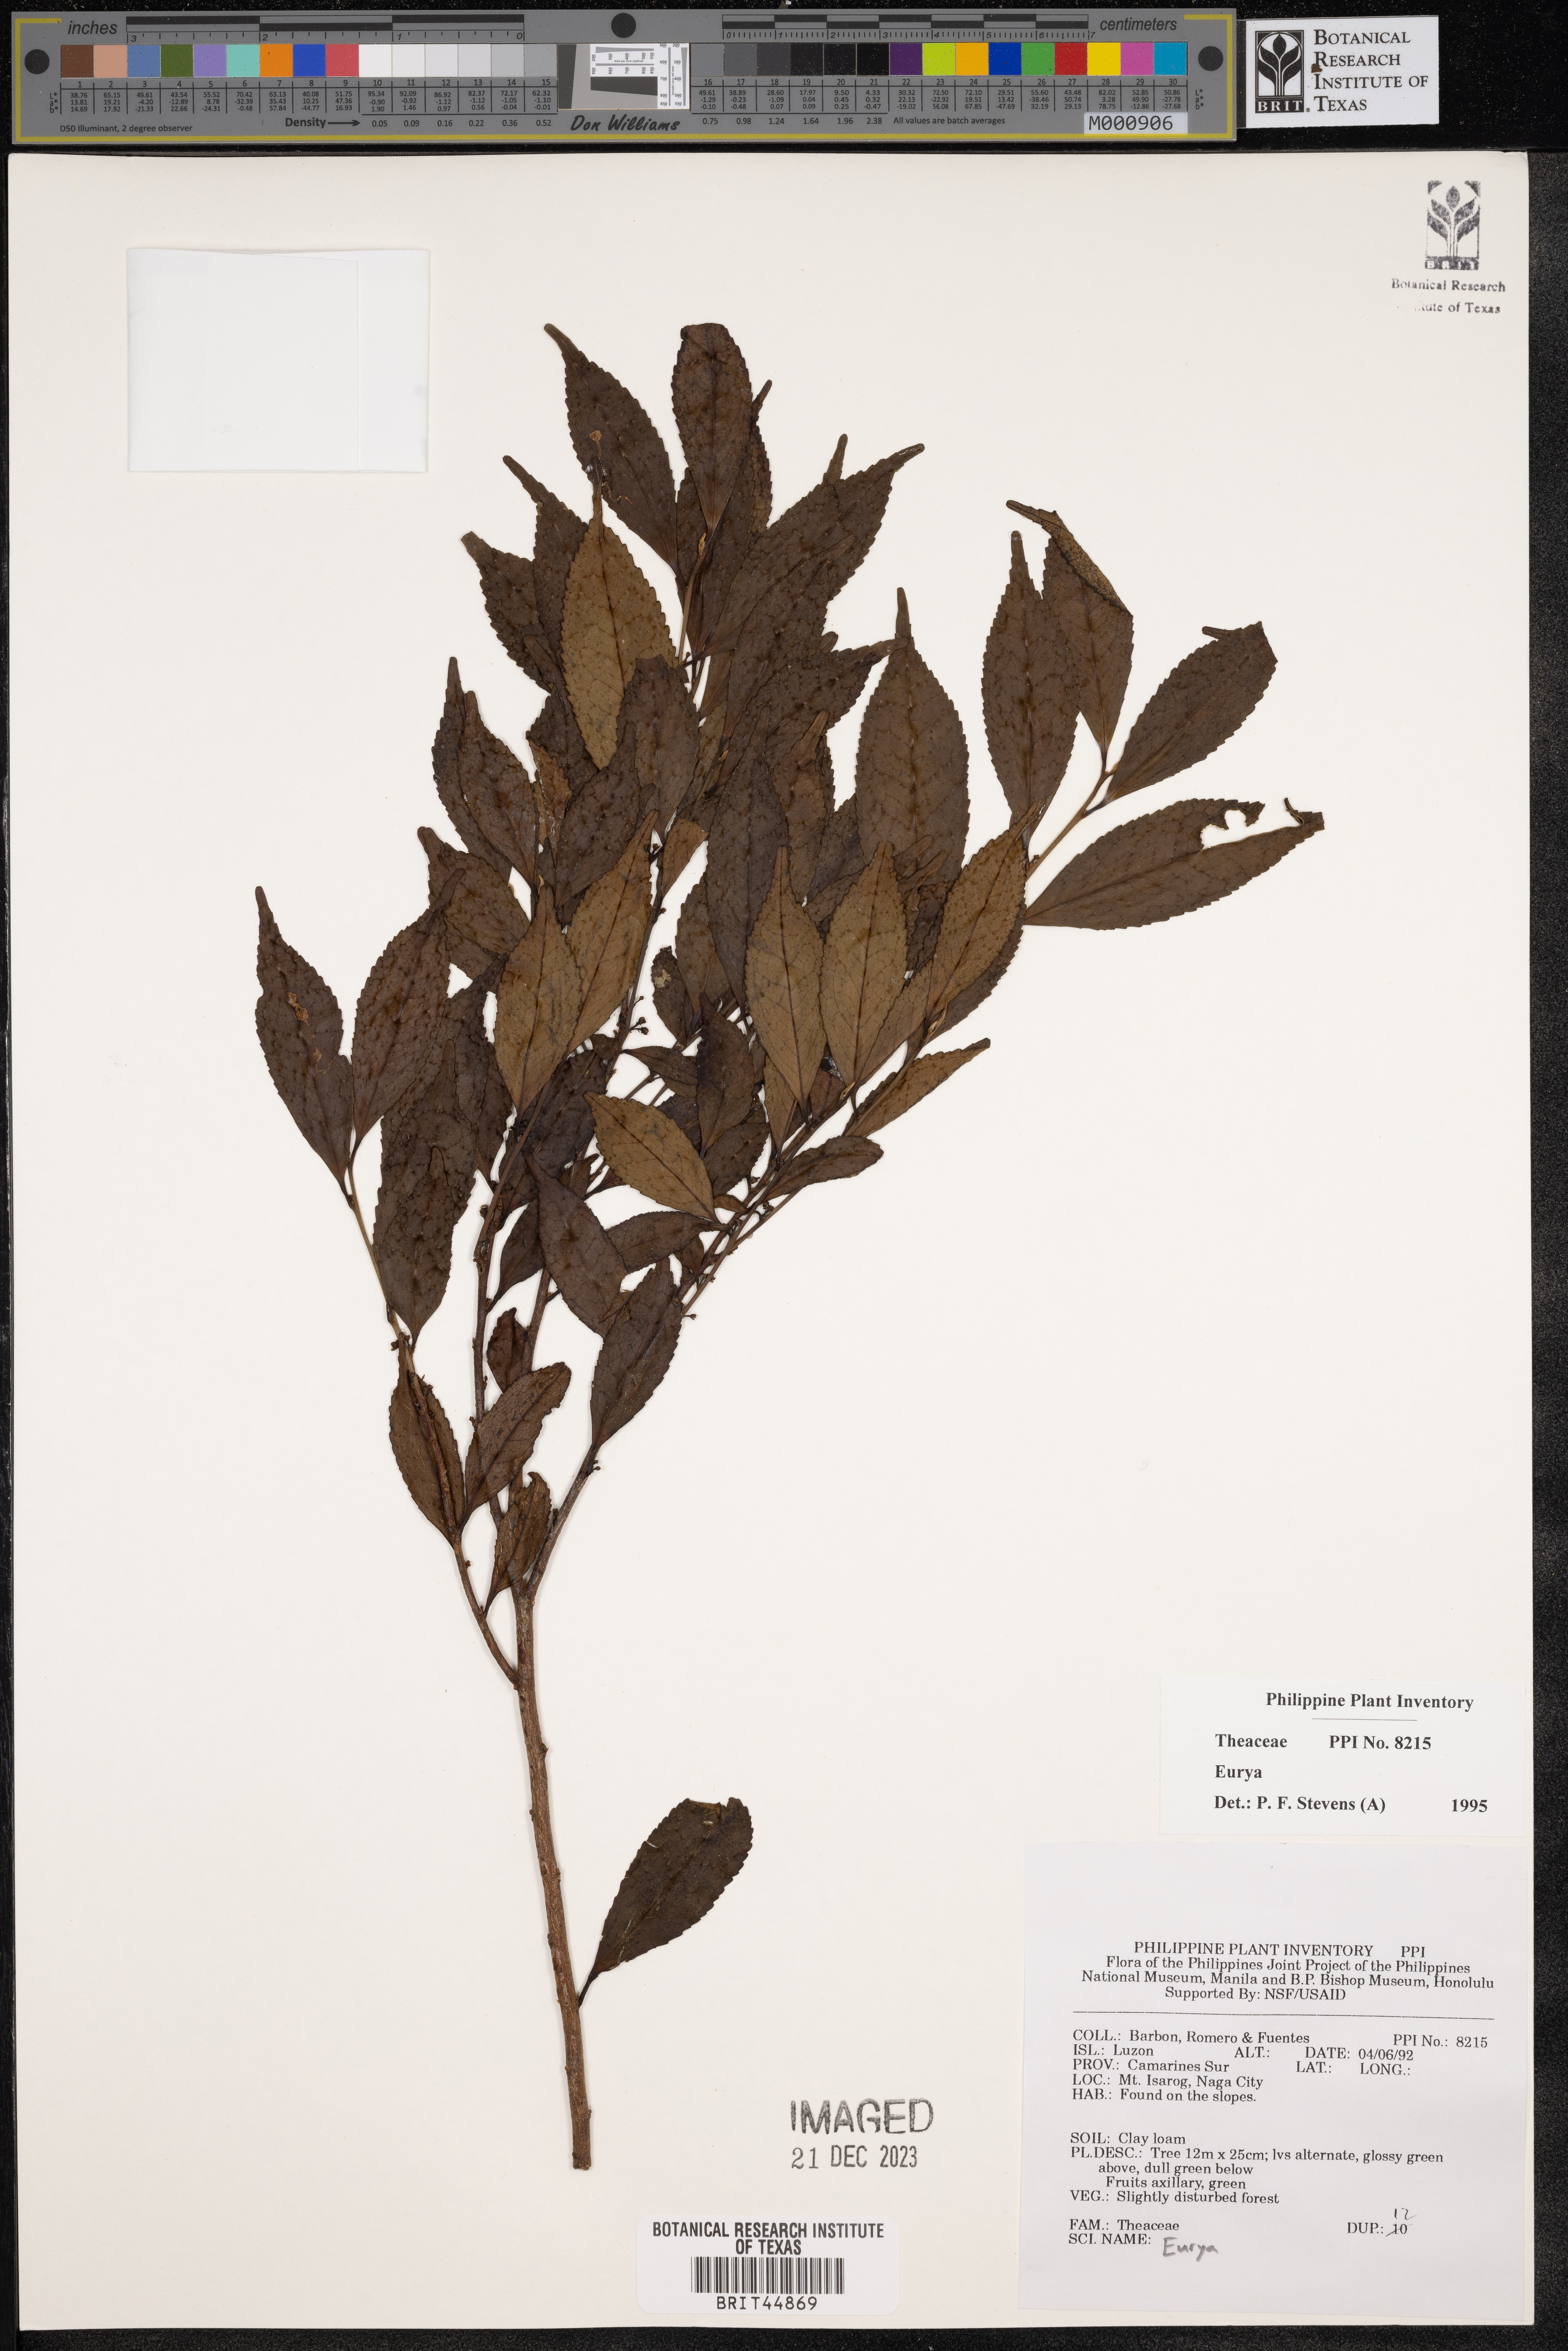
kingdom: Plantae
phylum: Tracheophyta
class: Magnoliopsida
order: Ericales
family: Pentaphylacaceae
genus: Eurya
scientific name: Eurya
